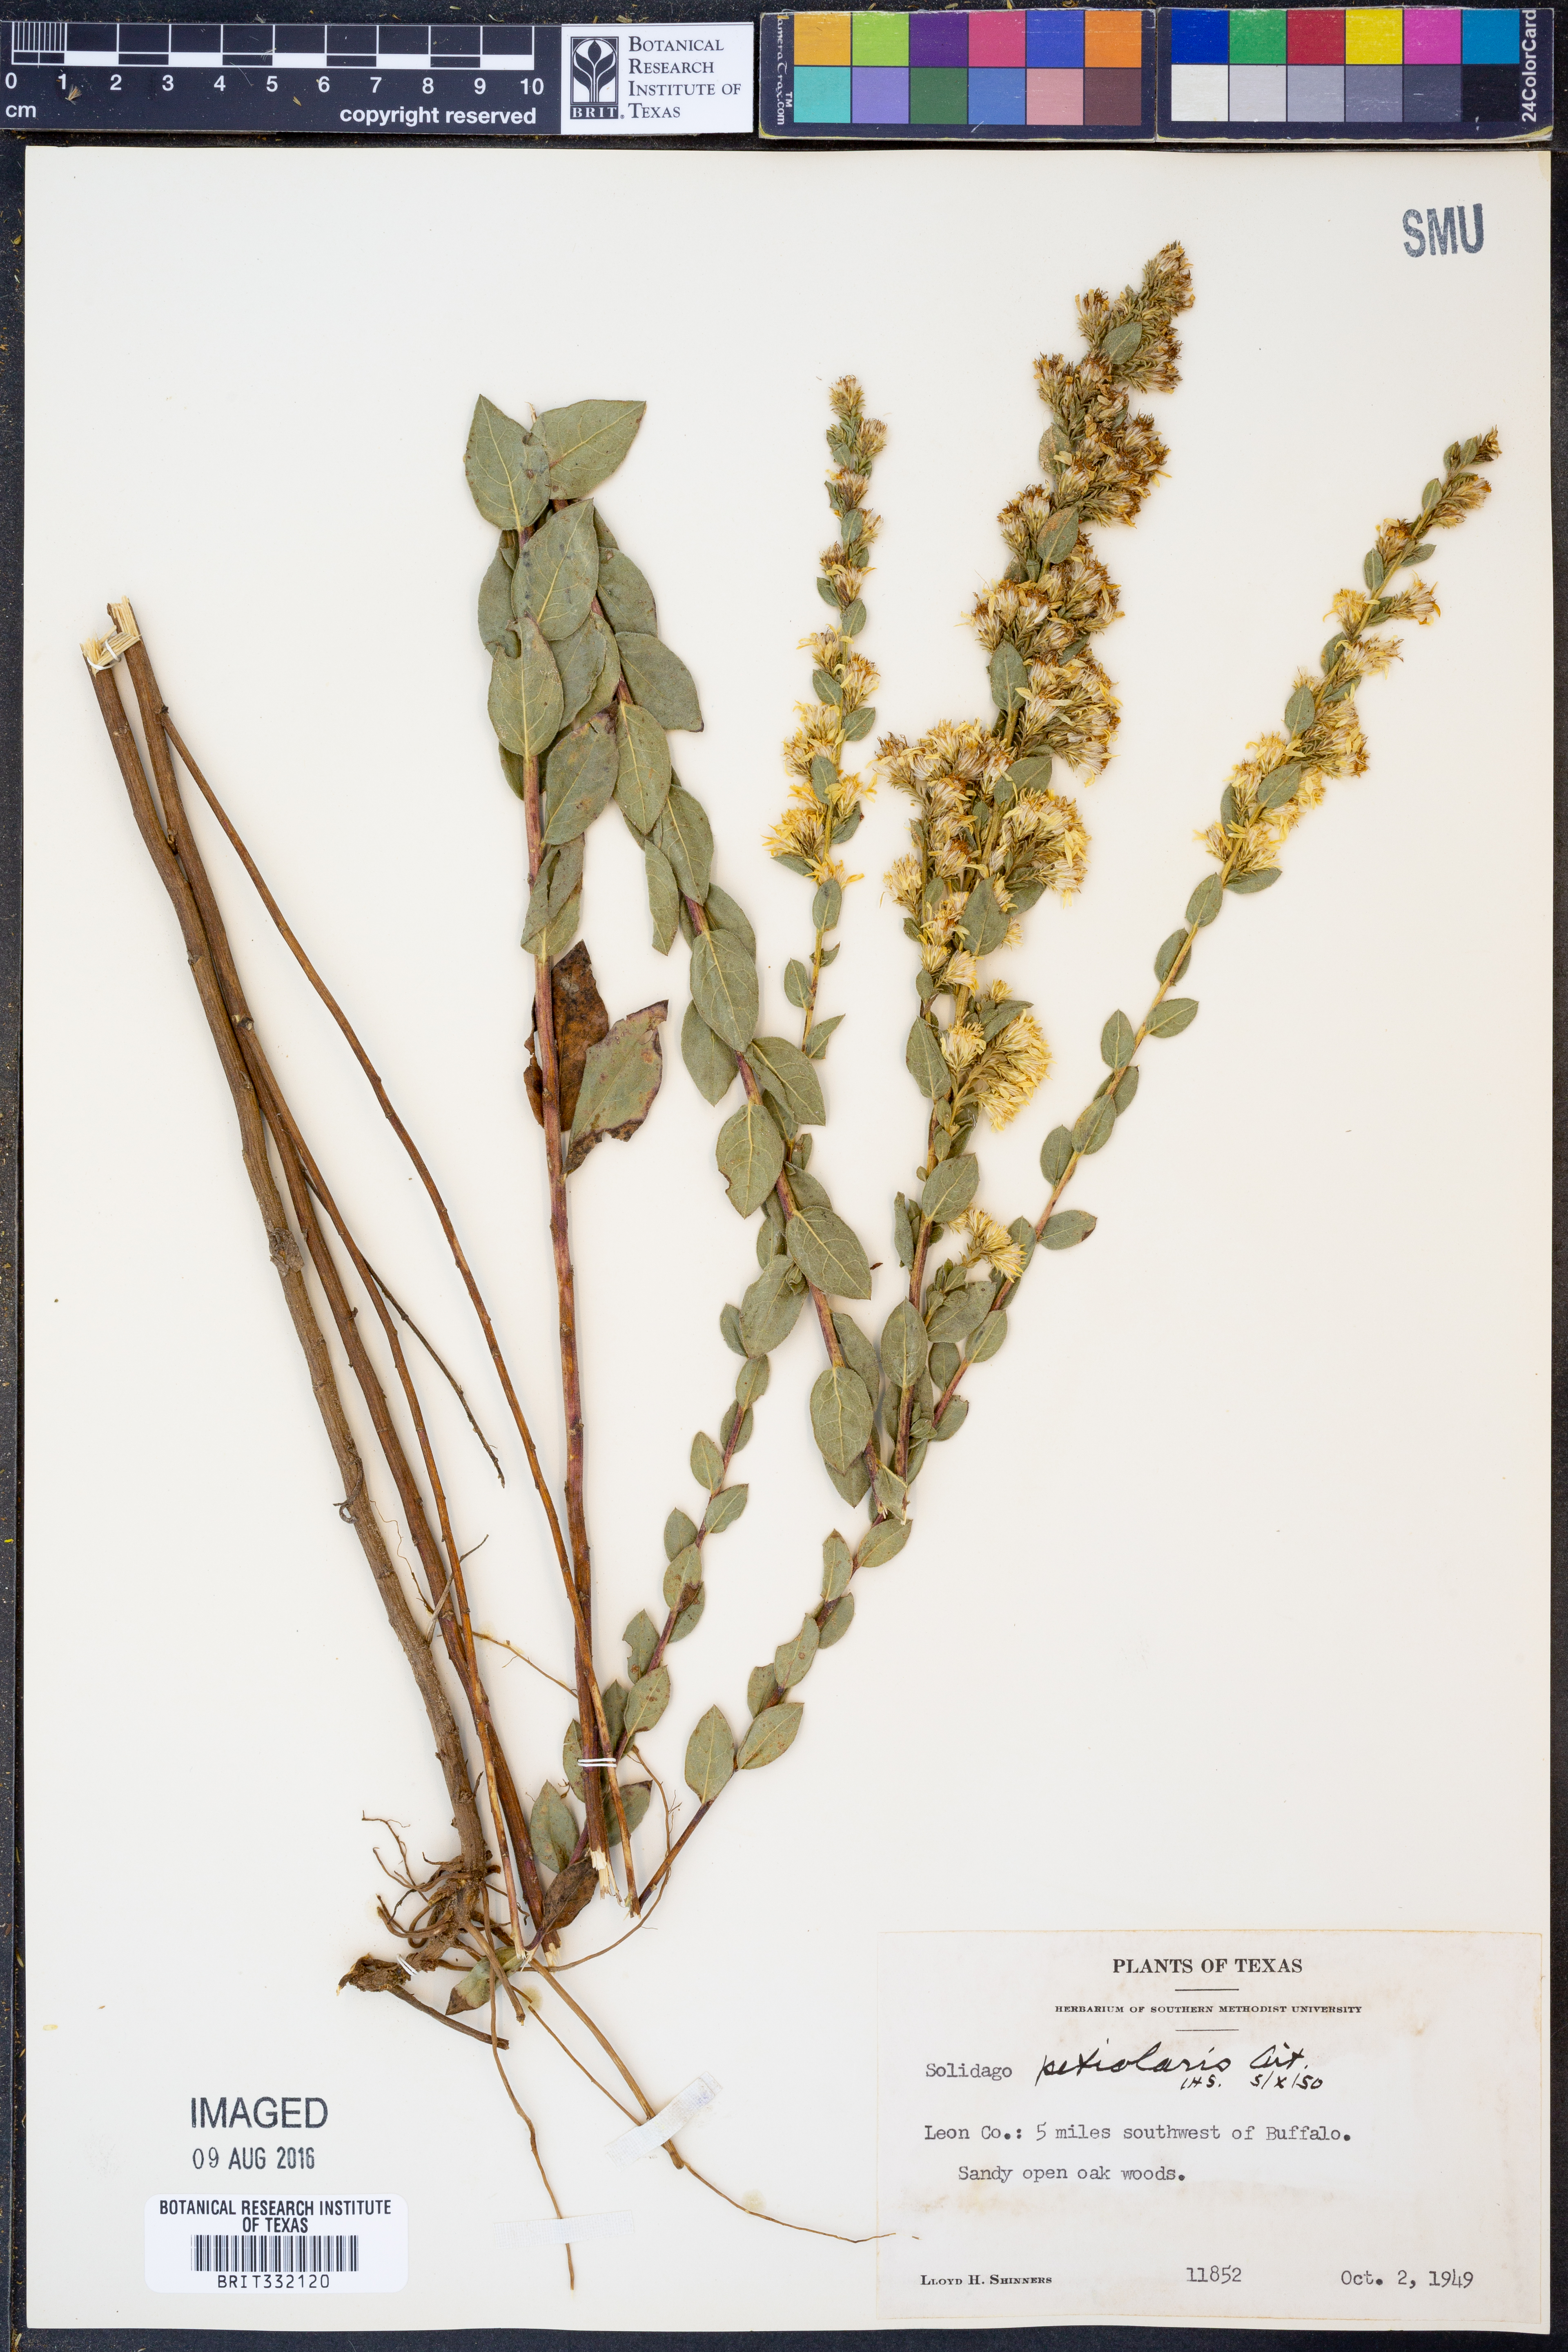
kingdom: Plantae
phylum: Tracheophyta
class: Magnoliopsida
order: Asterales
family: Asteraceae
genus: Solidago
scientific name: Solidago petiolaris
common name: Downy ragged goldenrod
